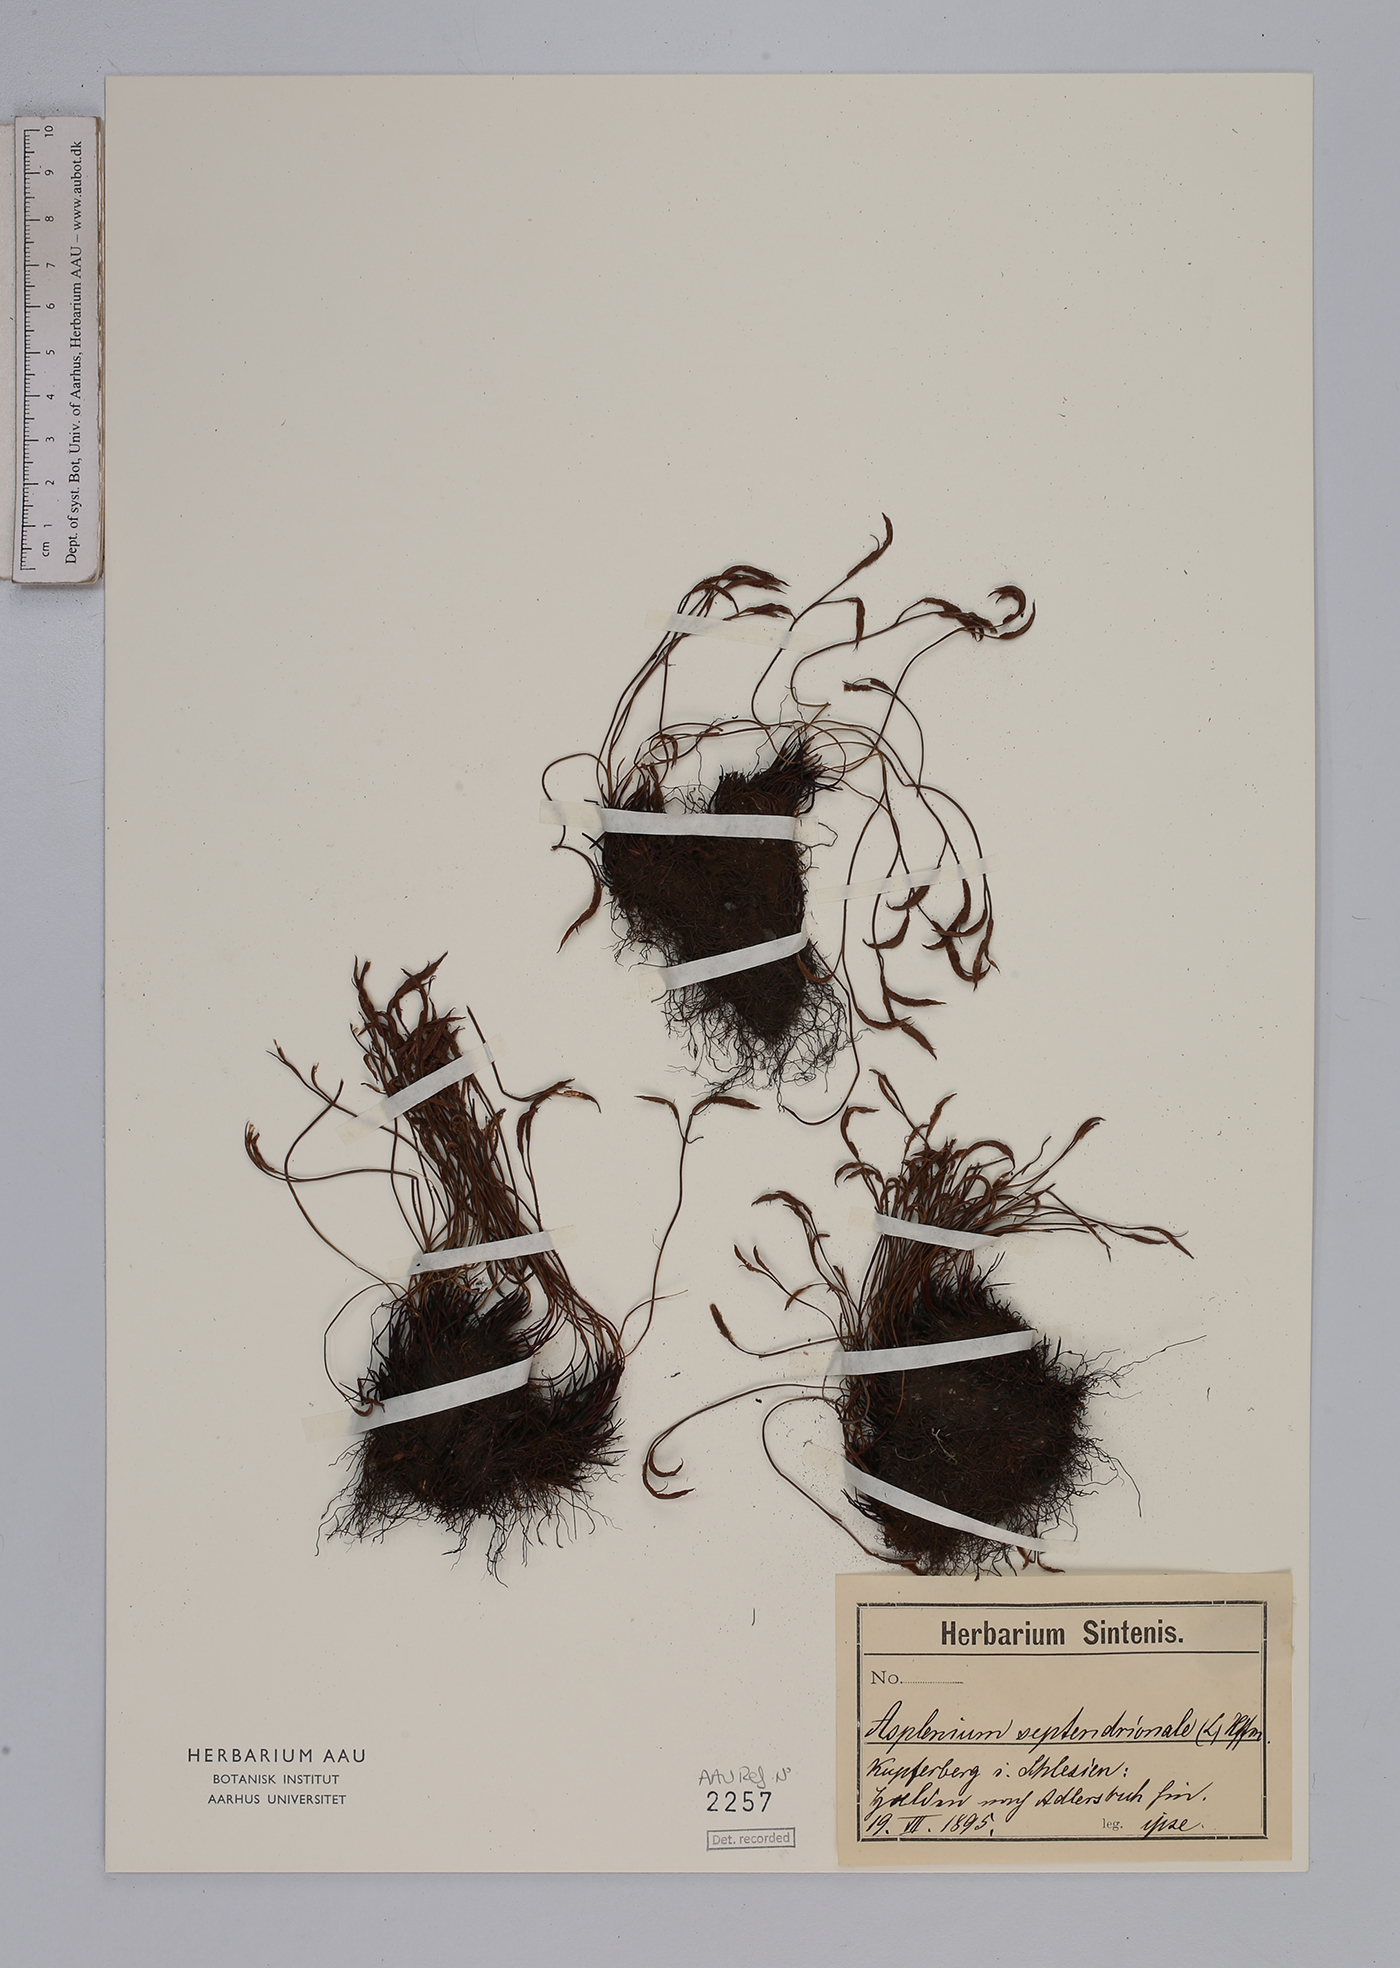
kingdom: Plantae
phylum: Tracheophyta
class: Polypodiopsida
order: Polypodiales
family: Aspleniaceae
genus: Asplenium
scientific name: Asplenium septentrionale
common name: Forked spleenwort
